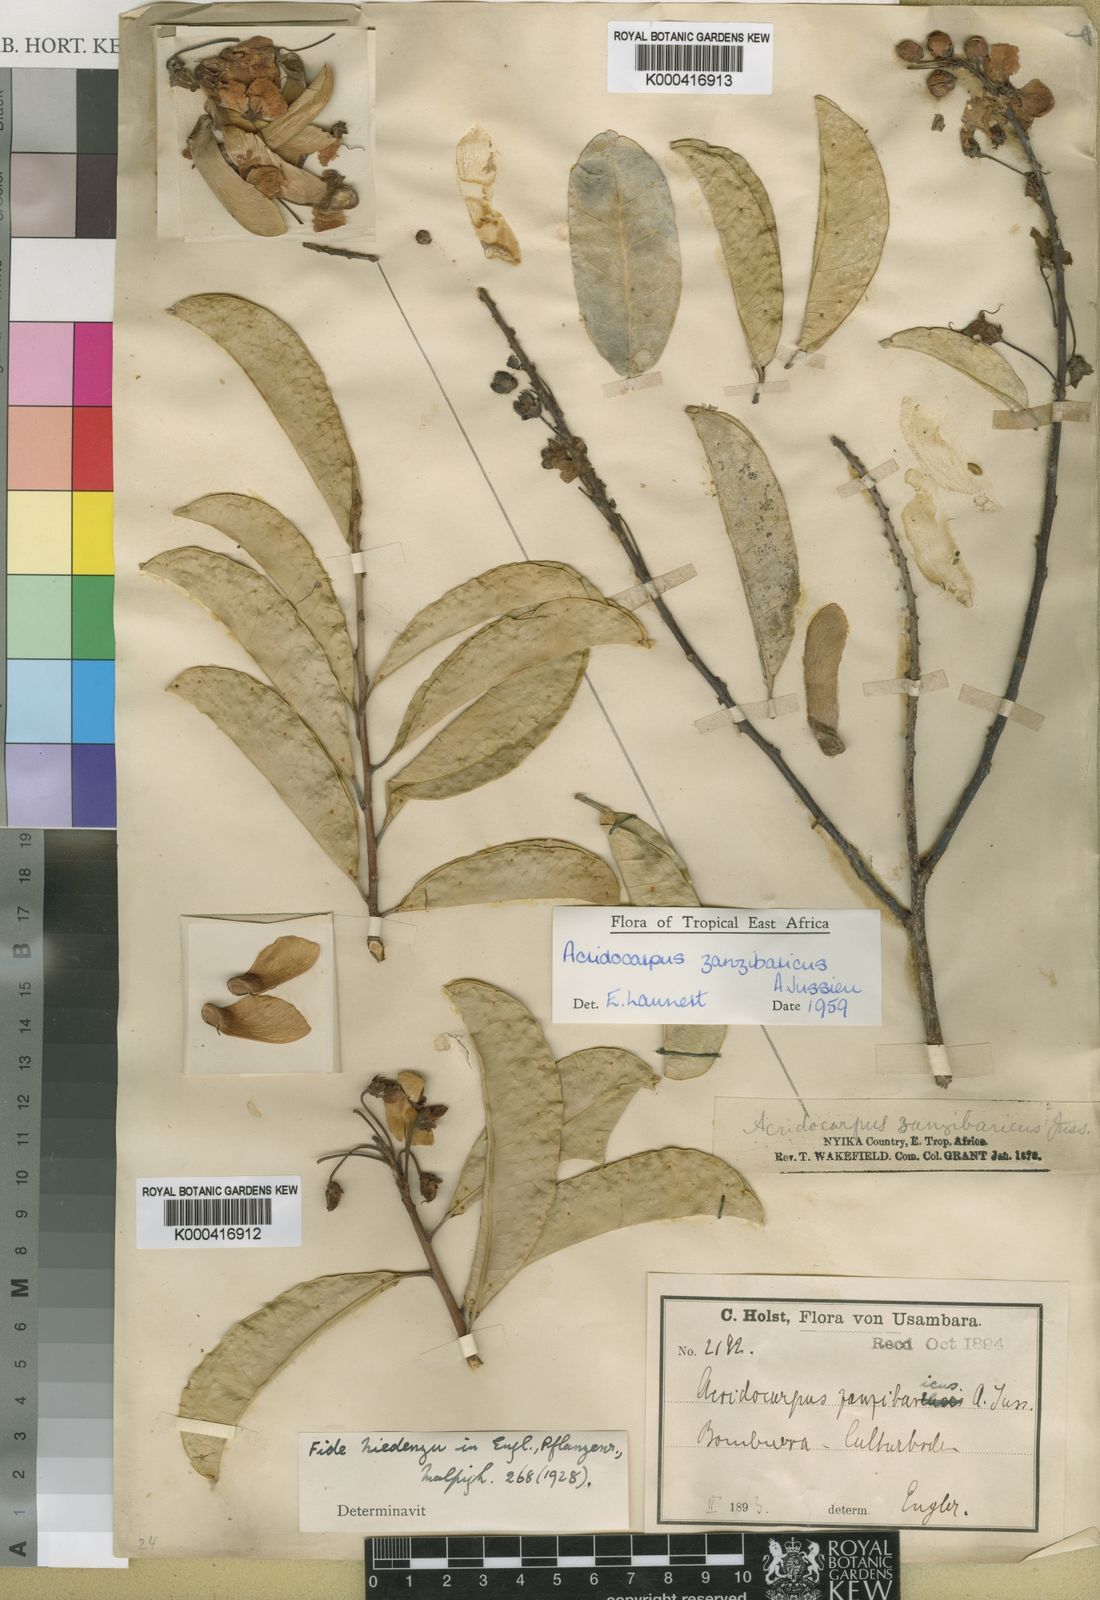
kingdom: Plantae
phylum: Tracheophyta
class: Magnoliopsida
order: Malpighiales
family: Malpighiaceae
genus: Acridocarpus
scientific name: Acridocarpus zanzibaricus
